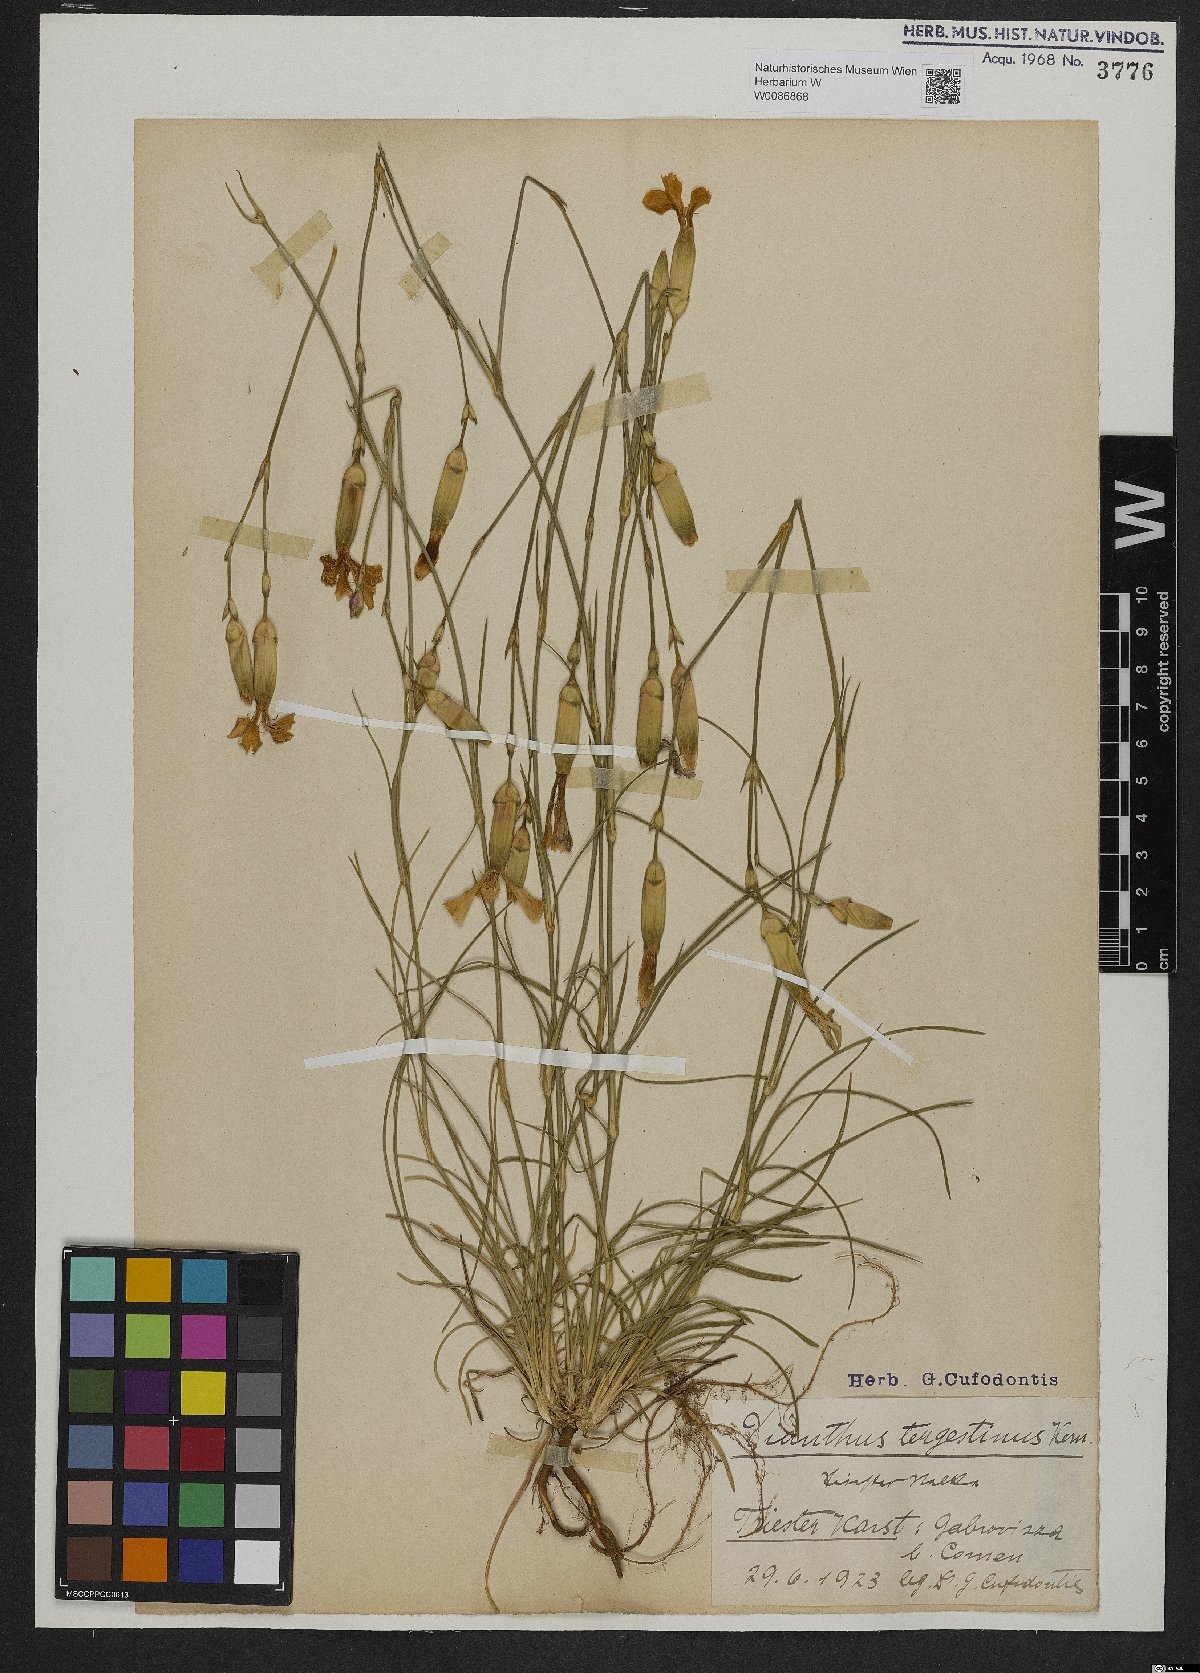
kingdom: Plantae
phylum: Tracheophyta
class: Magnoliopsida
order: Caryophyllales
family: Caryophyllaceae
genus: Dianthus
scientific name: Dianthus sylvestris
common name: Wood pink
